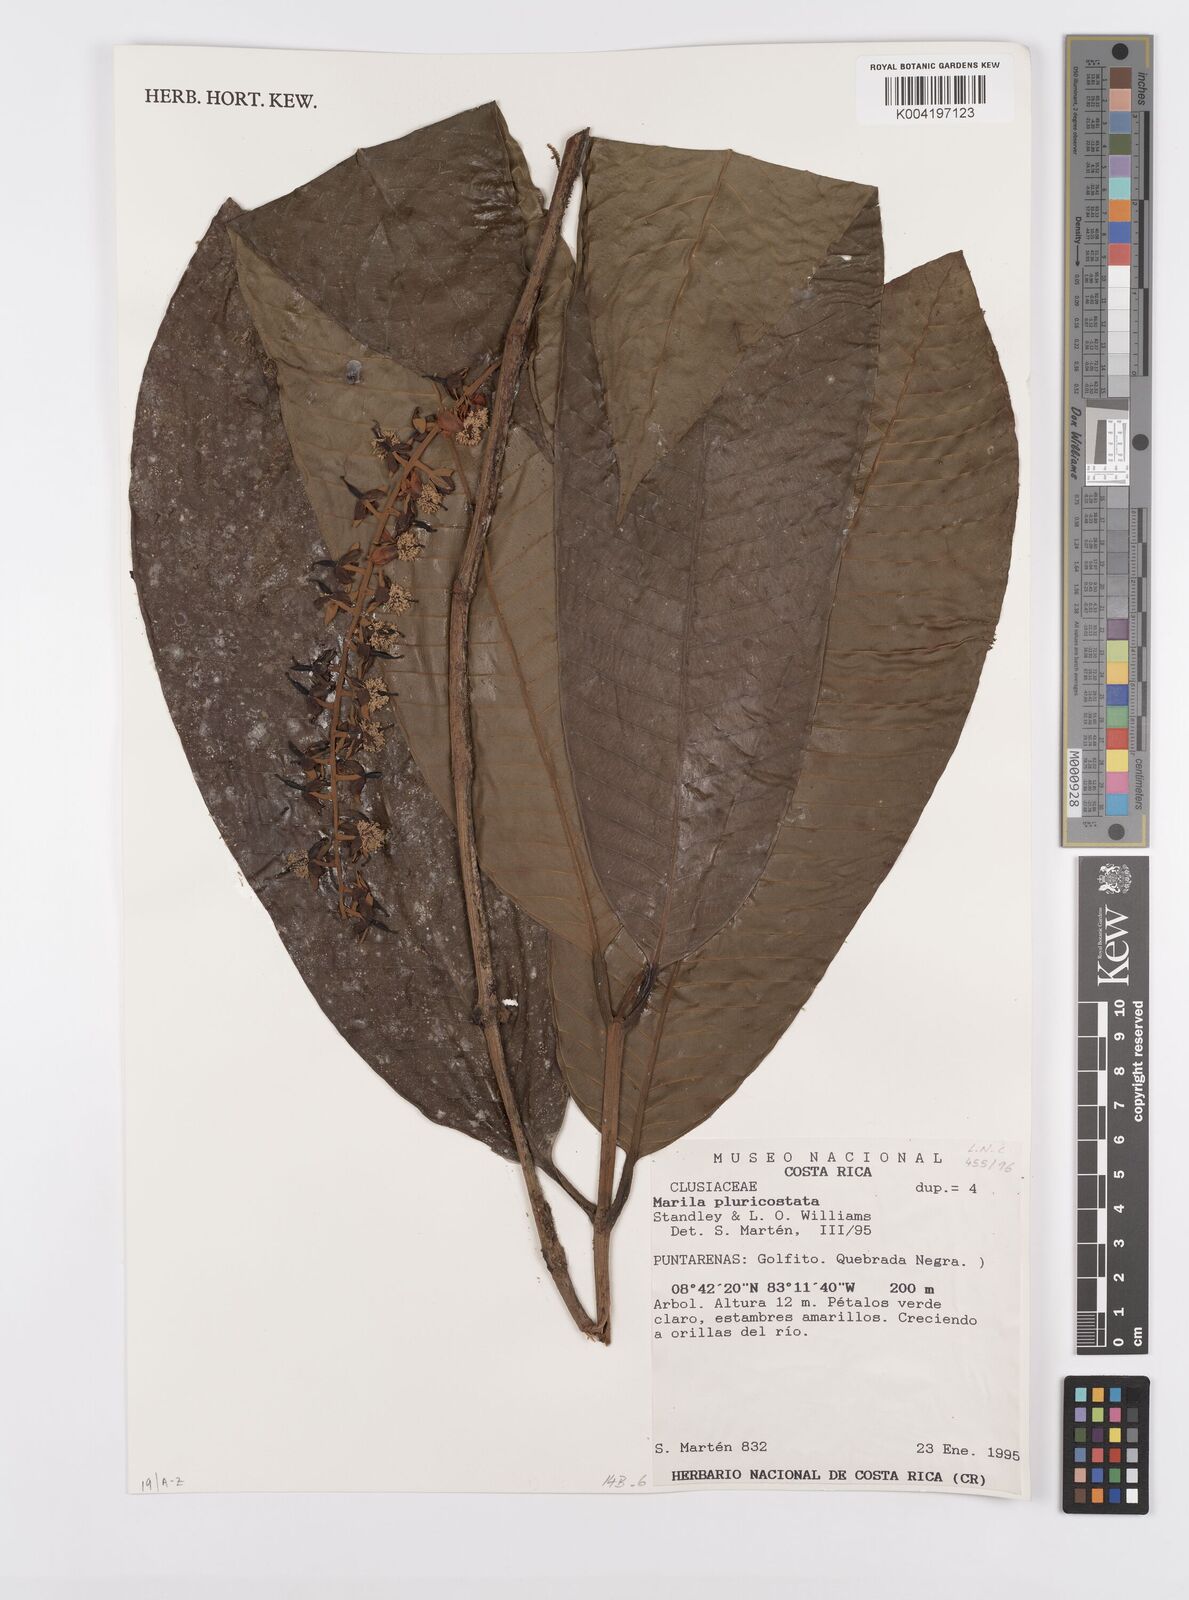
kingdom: Plantae
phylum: Tracheophyta
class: Magnoliopsida
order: Malpighiales
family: Calophyllaceae
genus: Marila
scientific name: Marila podantha
